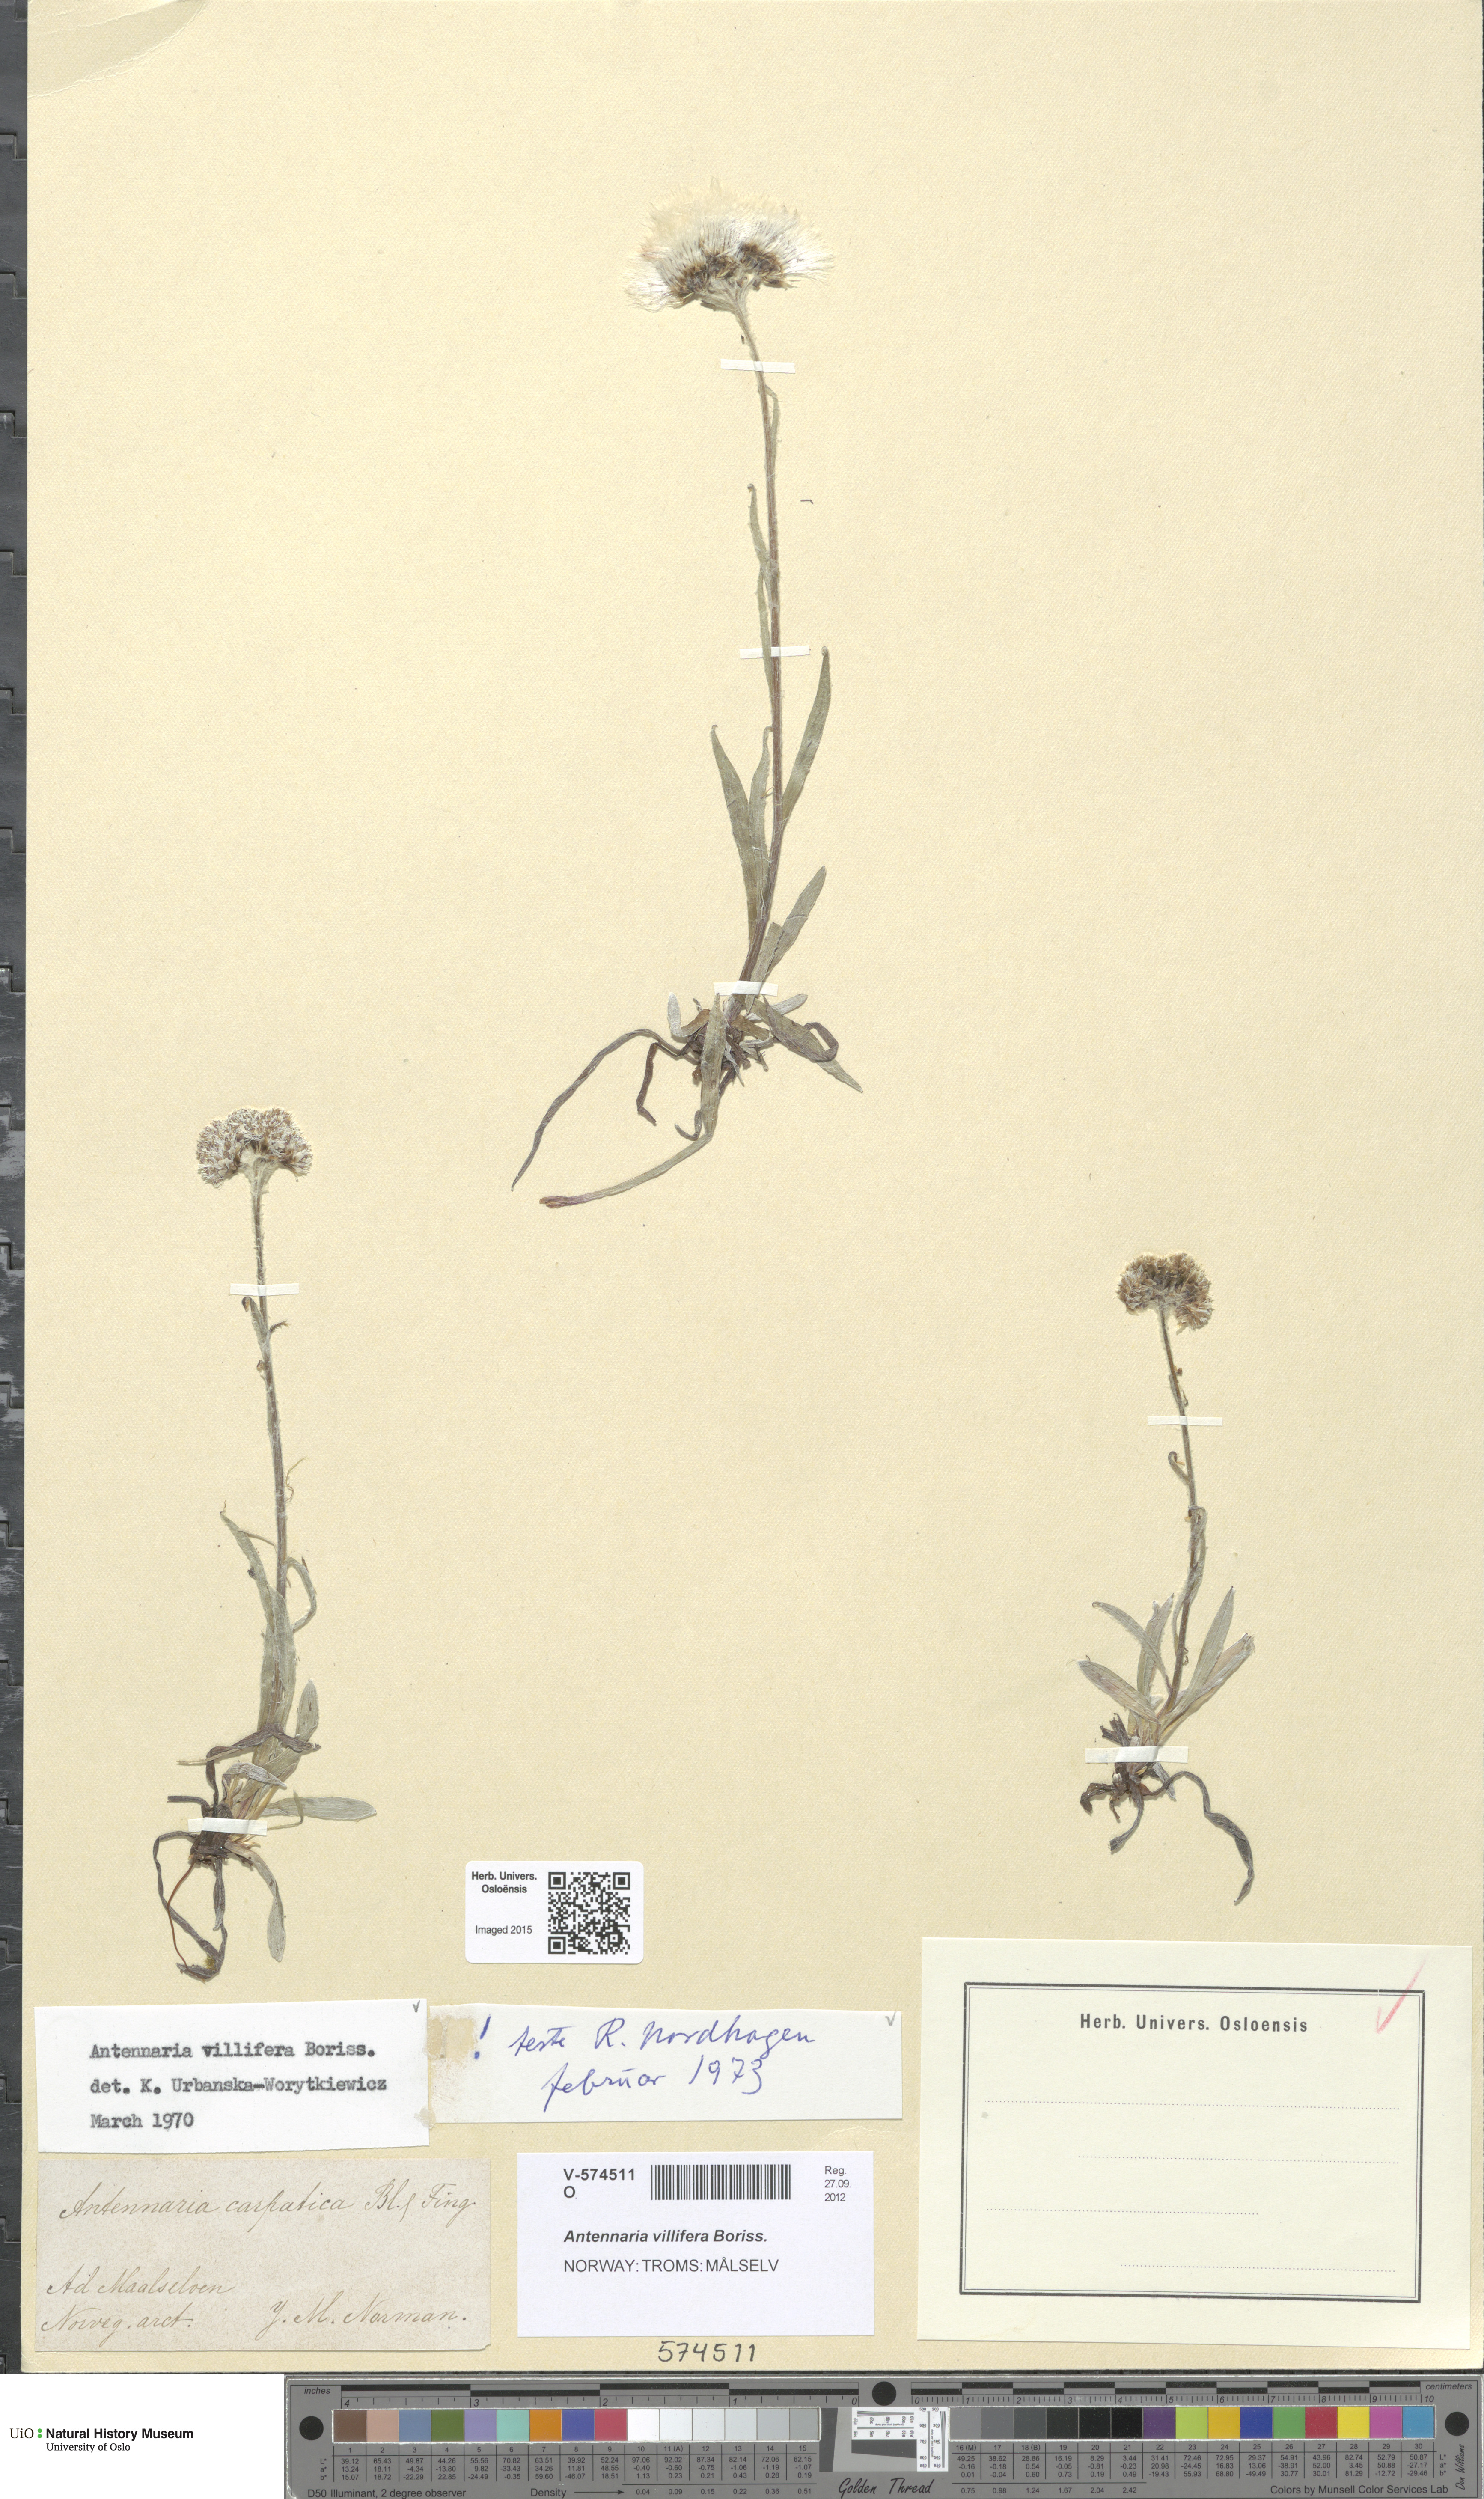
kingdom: Plantae
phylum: Tracheophyta
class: Magnoliopsida
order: Asterales
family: Asteraceae
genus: Antennaria
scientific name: Antennaria lanata
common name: Woolly pussytoes
